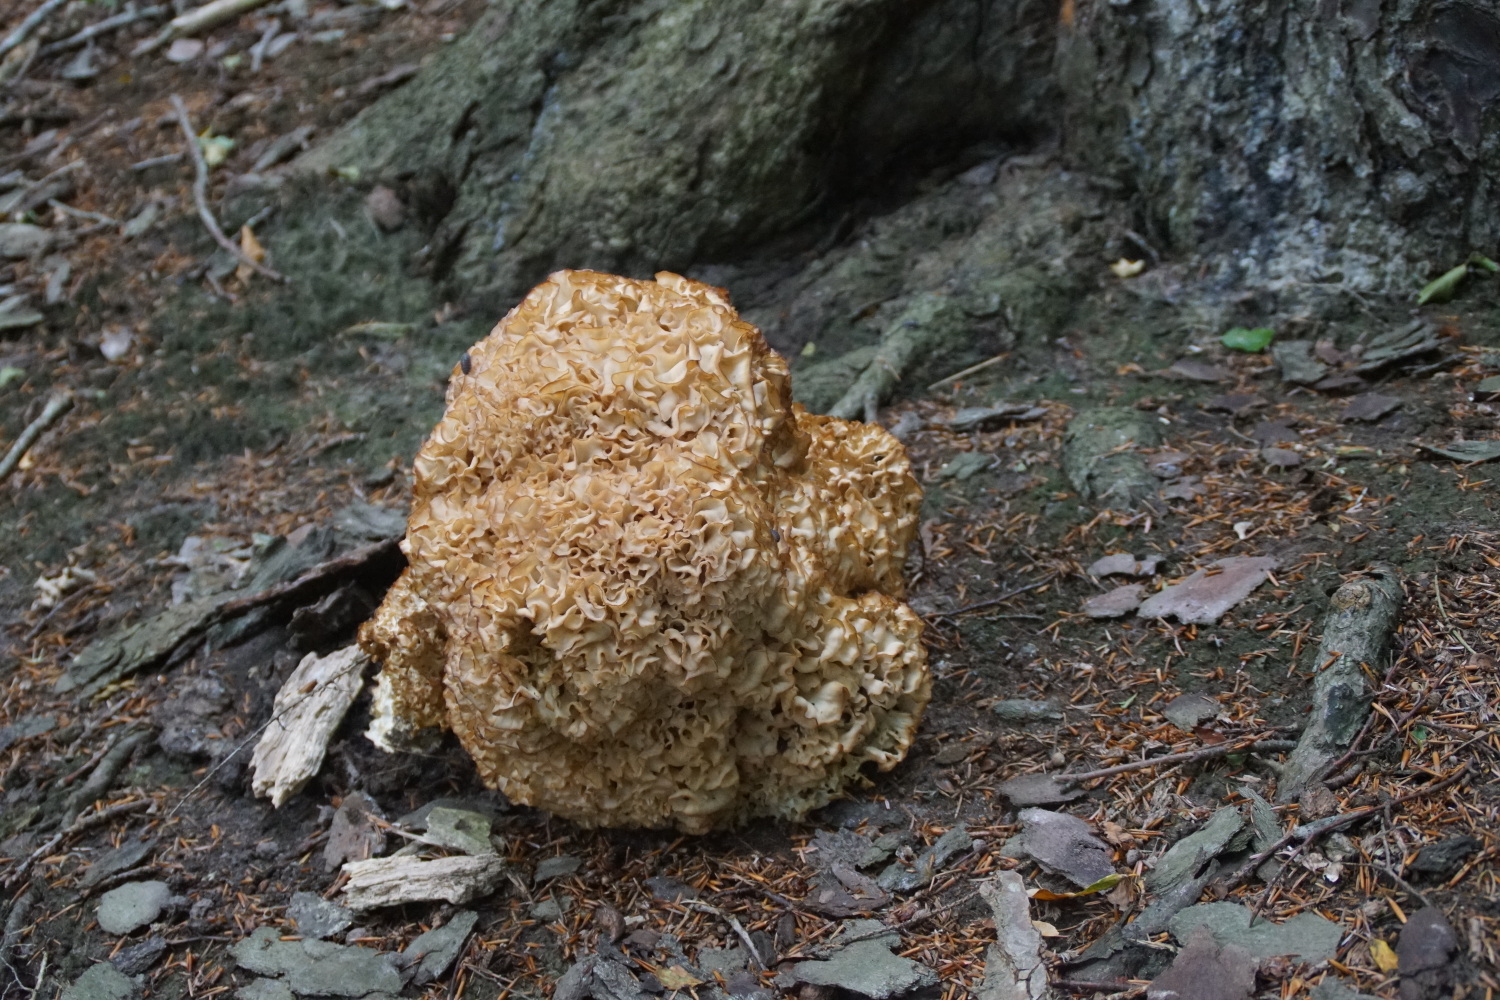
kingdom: Fungi
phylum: Basidiomycota
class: Agaricomycetes
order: Polyporales
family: Sparassidaceae
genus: Sparassis
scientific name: Sparassis crispa
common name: kruset blomkålssvamp
